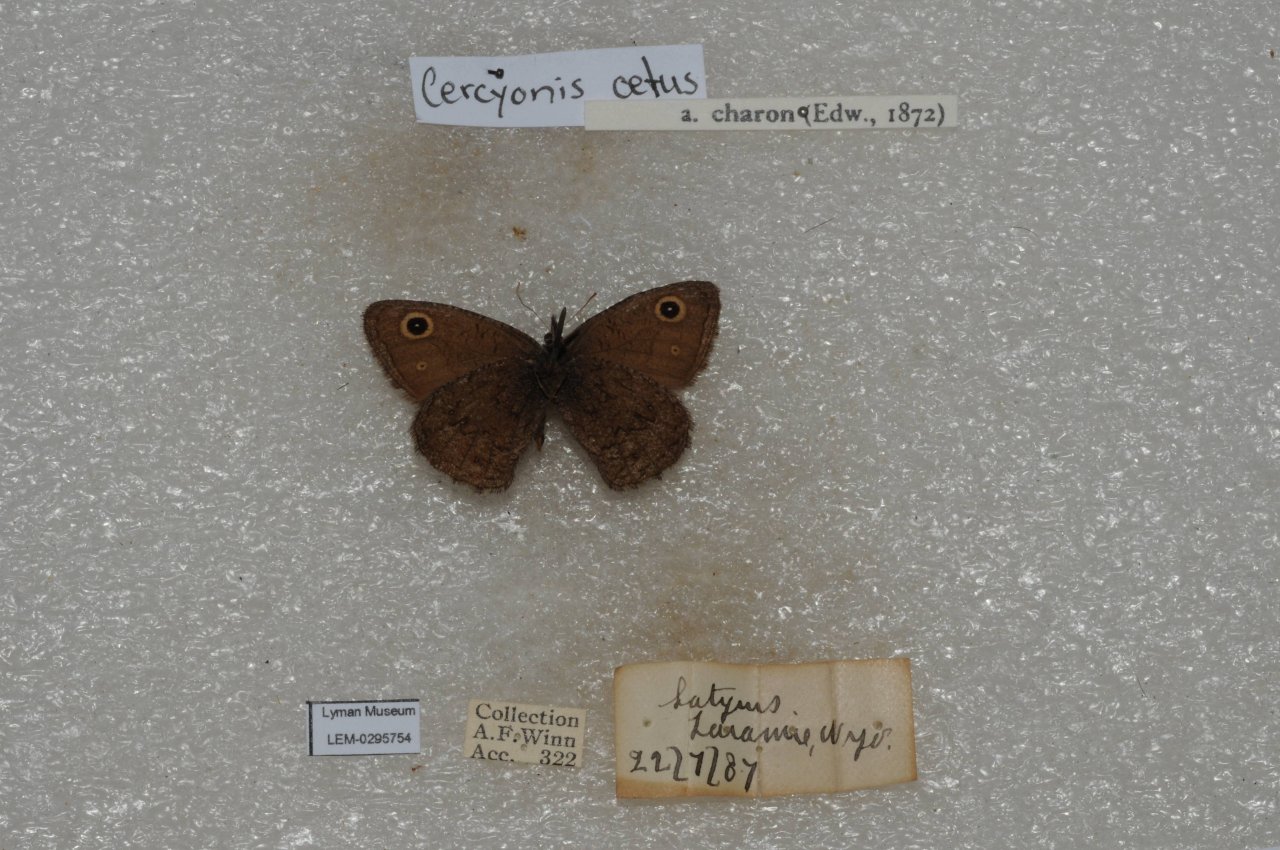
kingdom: Animalia
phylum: Arthropoda
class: Insecta
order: Lepidoptera
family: Nymphalidae
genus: Cercyonis
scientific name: Cercyonis oetus
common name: Small Wood-Nymph
